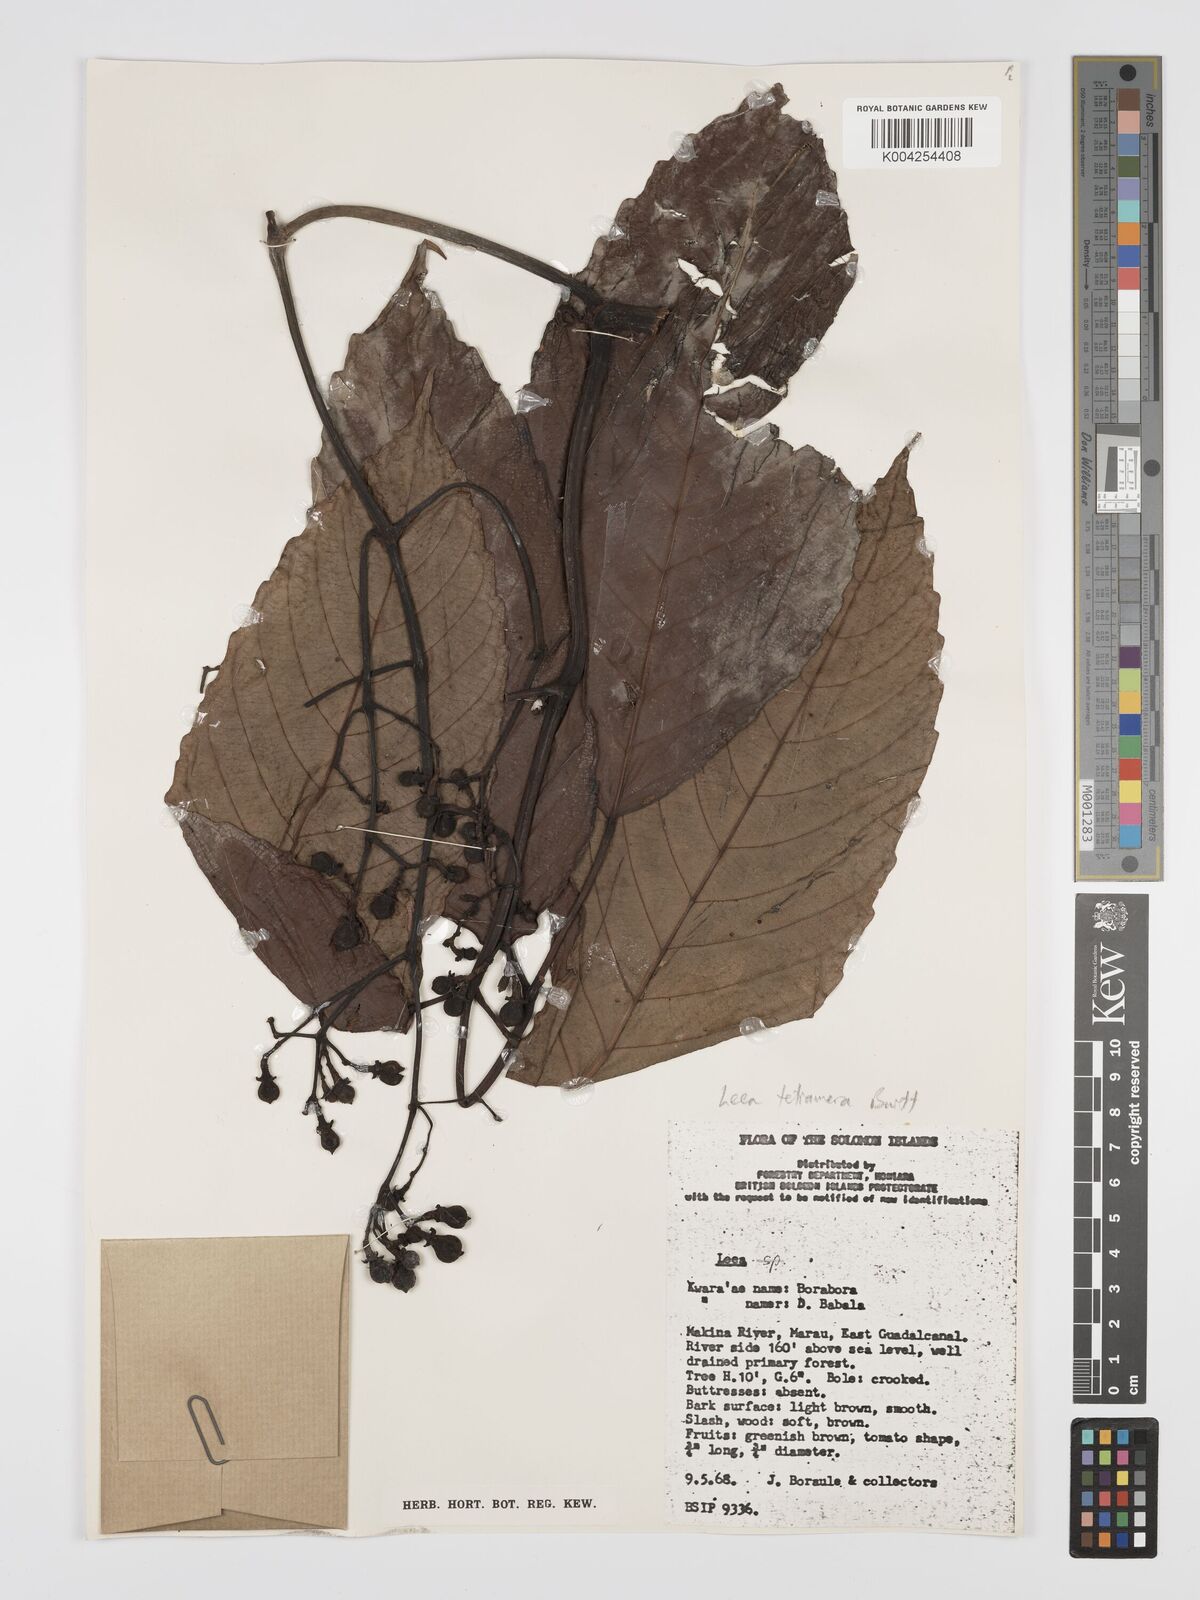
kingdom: Plantae
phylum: Tracheophyta
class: Magnoliopsida
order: Vitales
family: Vitaceae
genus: Leea
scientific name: Leea tetramera
